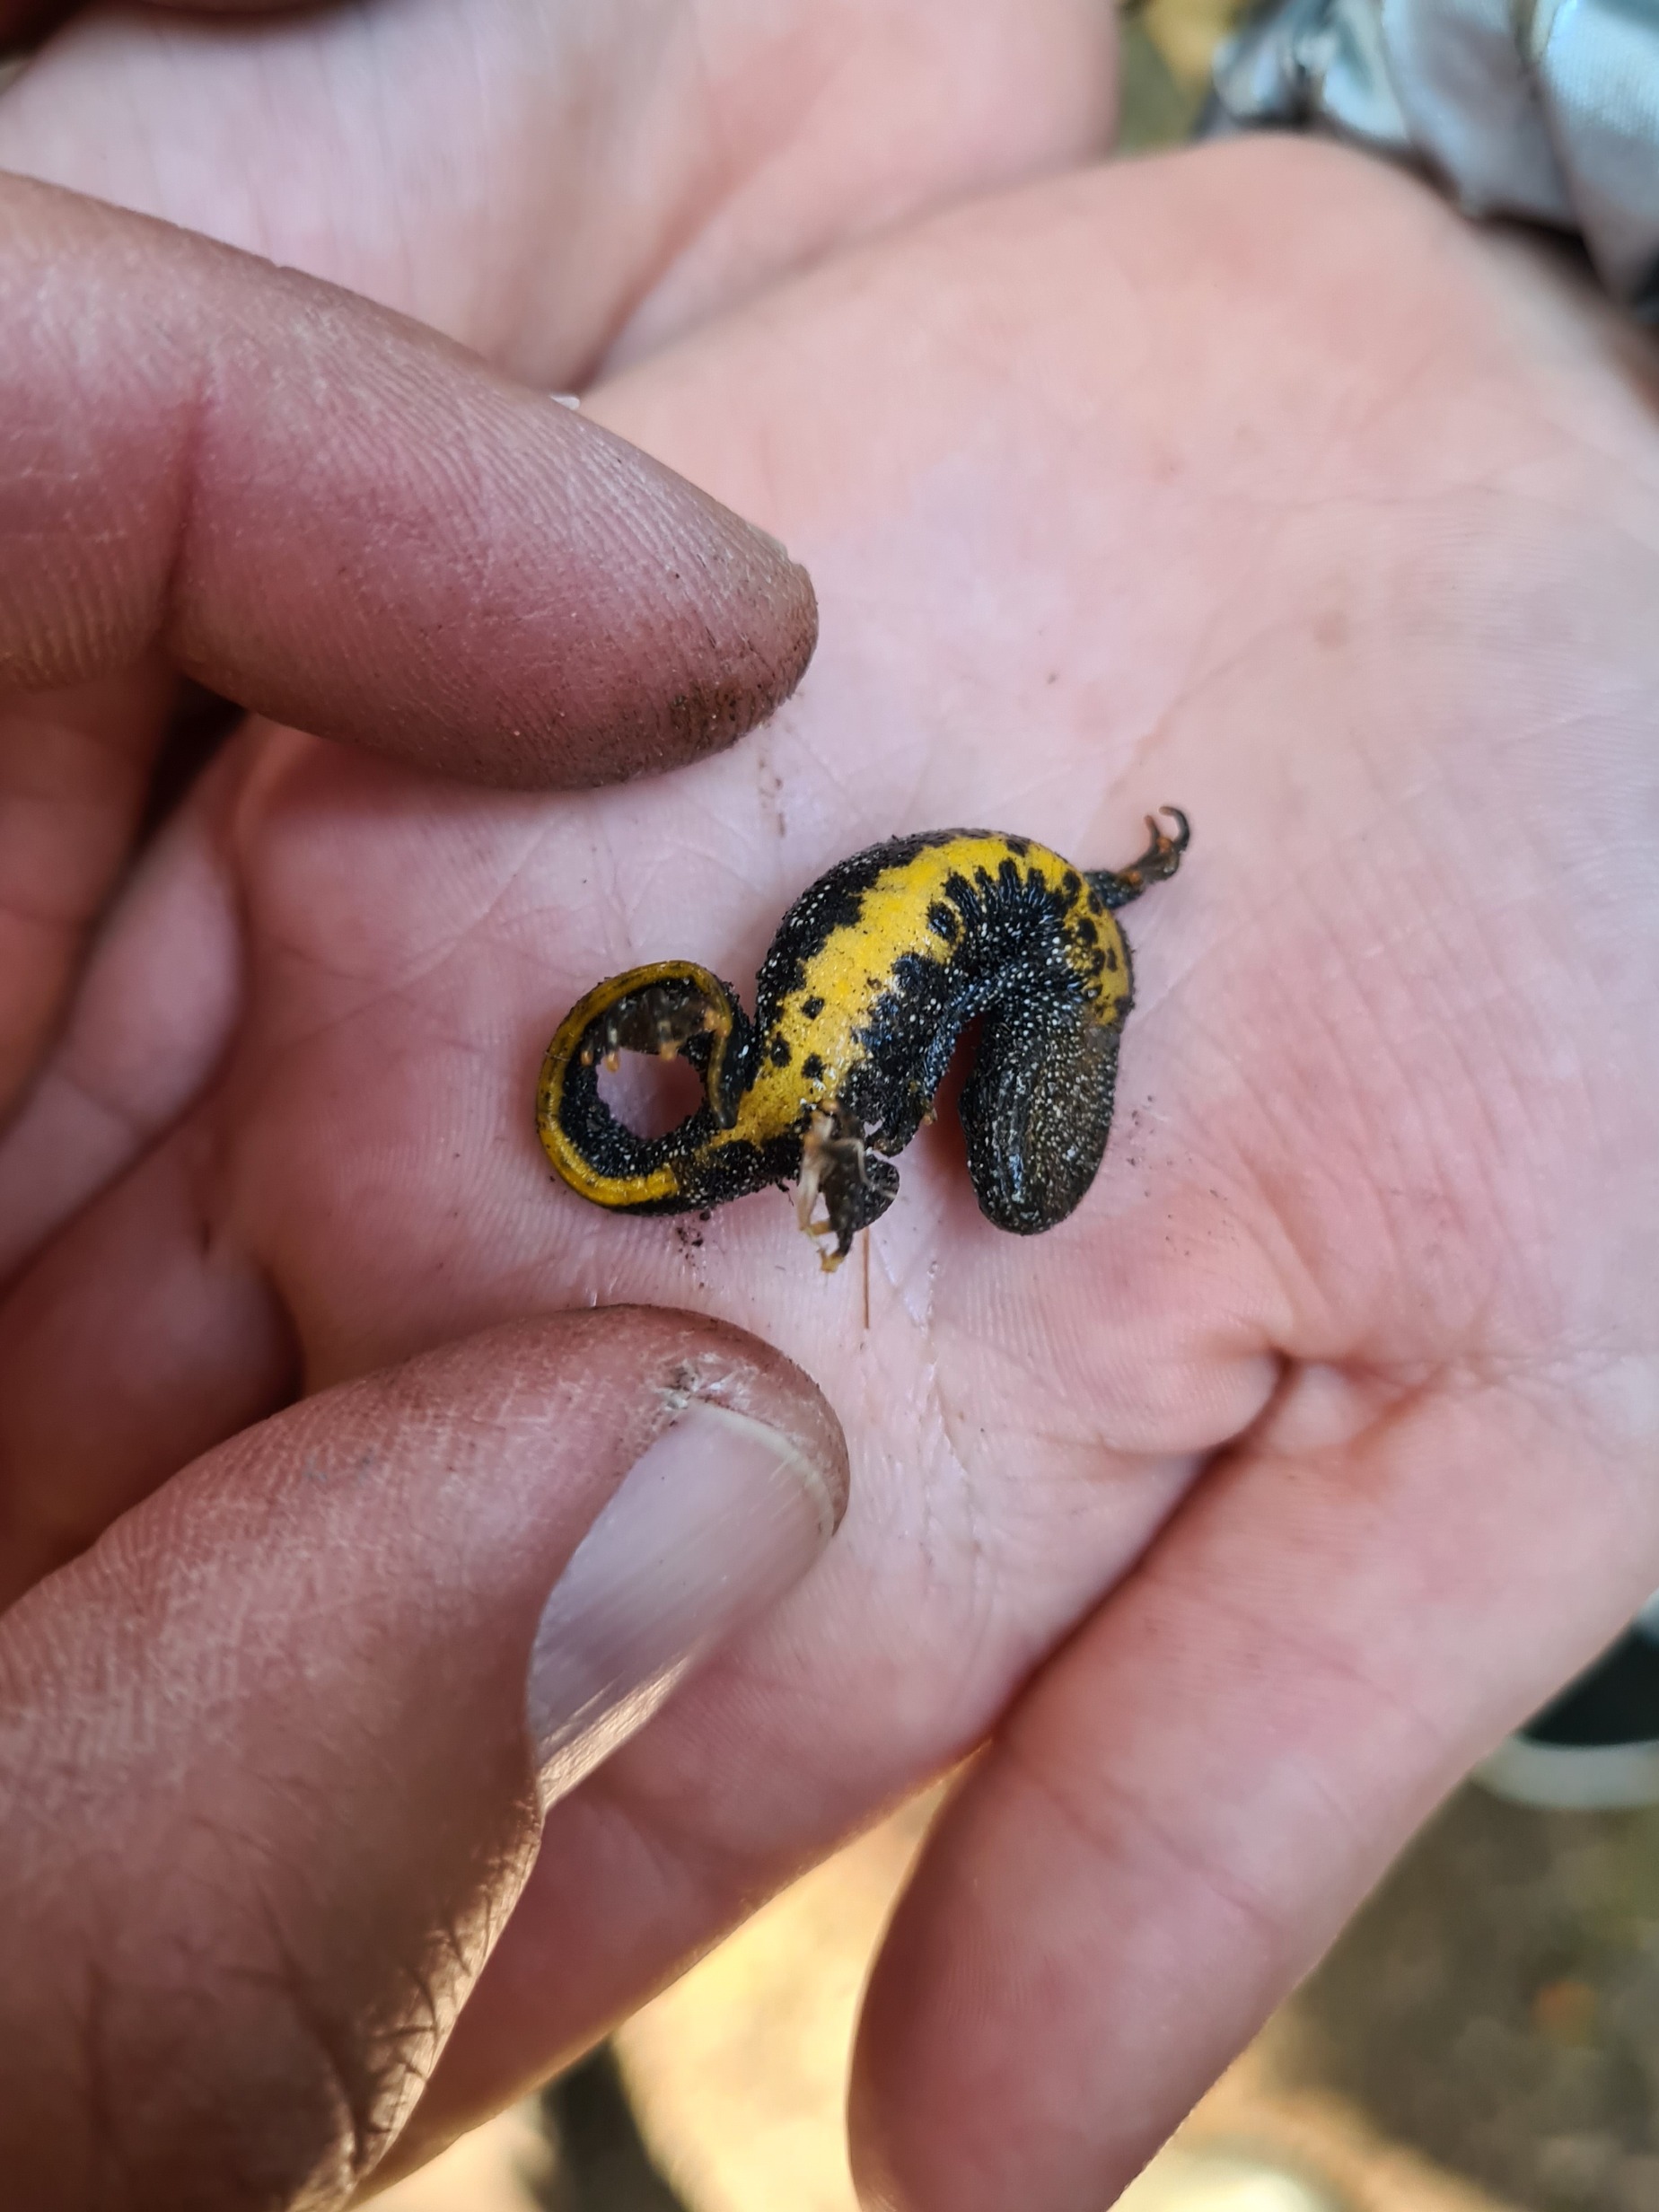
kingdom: Animalia
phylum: Chordata
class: Amphibia
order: Caudata
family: Salamandridae
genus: Triturus
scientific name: Triturus cristatus
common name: Stor vandsalamander
